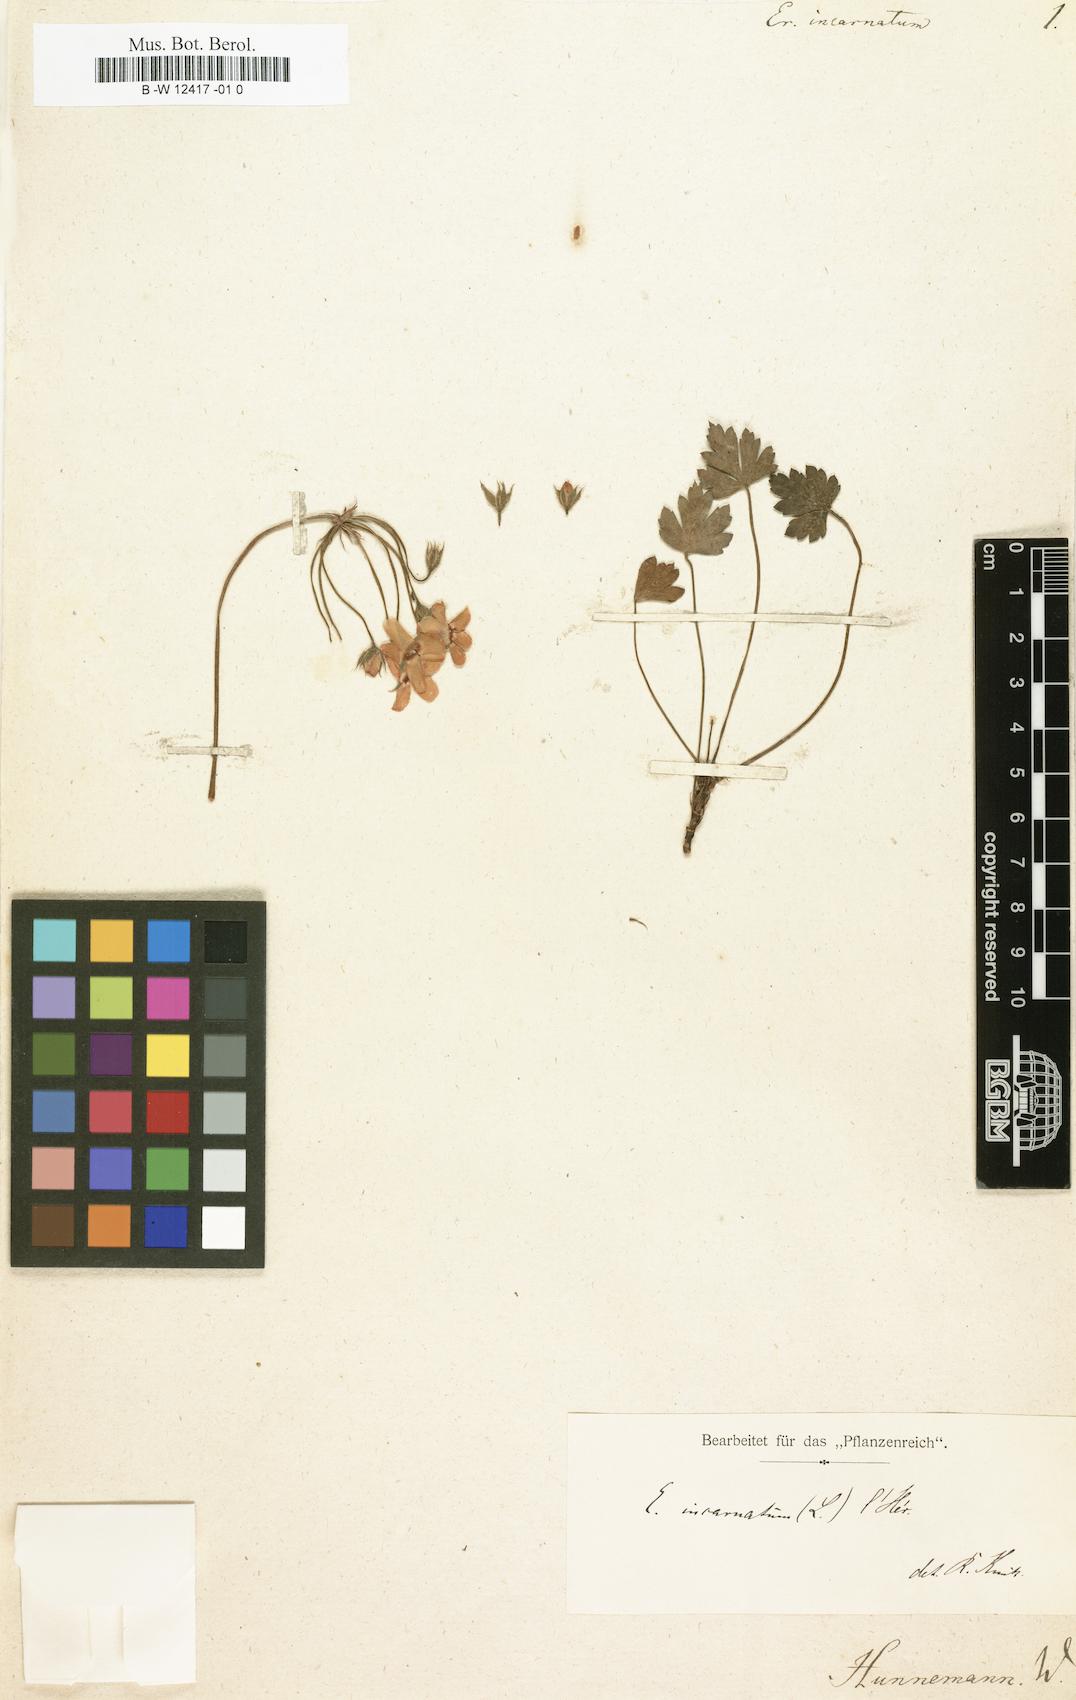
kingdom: Plantae
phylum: Tracheophyta
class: Magnoliopsida
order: Geraniales
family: Geraniaceae
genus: Pelargonium
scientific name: Pelargonium incarnatum
